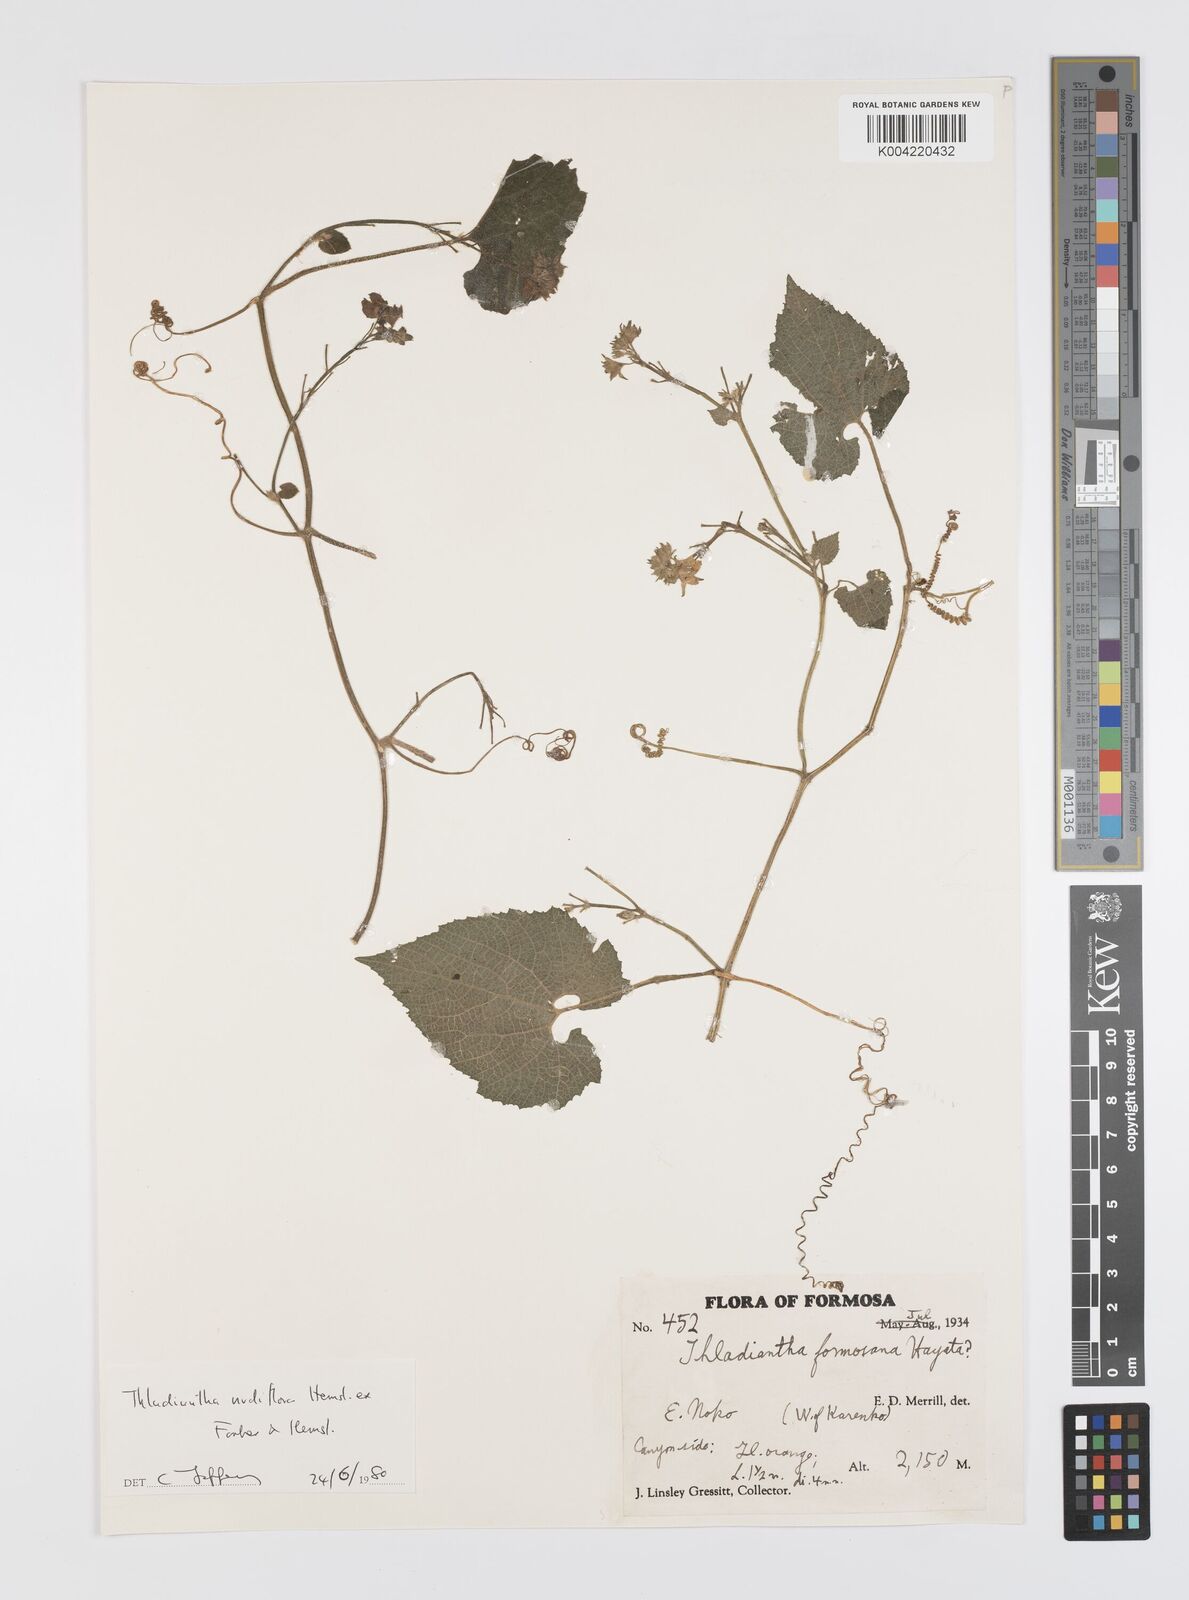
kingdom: Plantae
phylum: Tracheophyta
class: Magnoliopsida
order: Cucurbitales
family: Cucurbitaceae
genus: Thladiantha
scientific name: Thladiantha nudiflora
